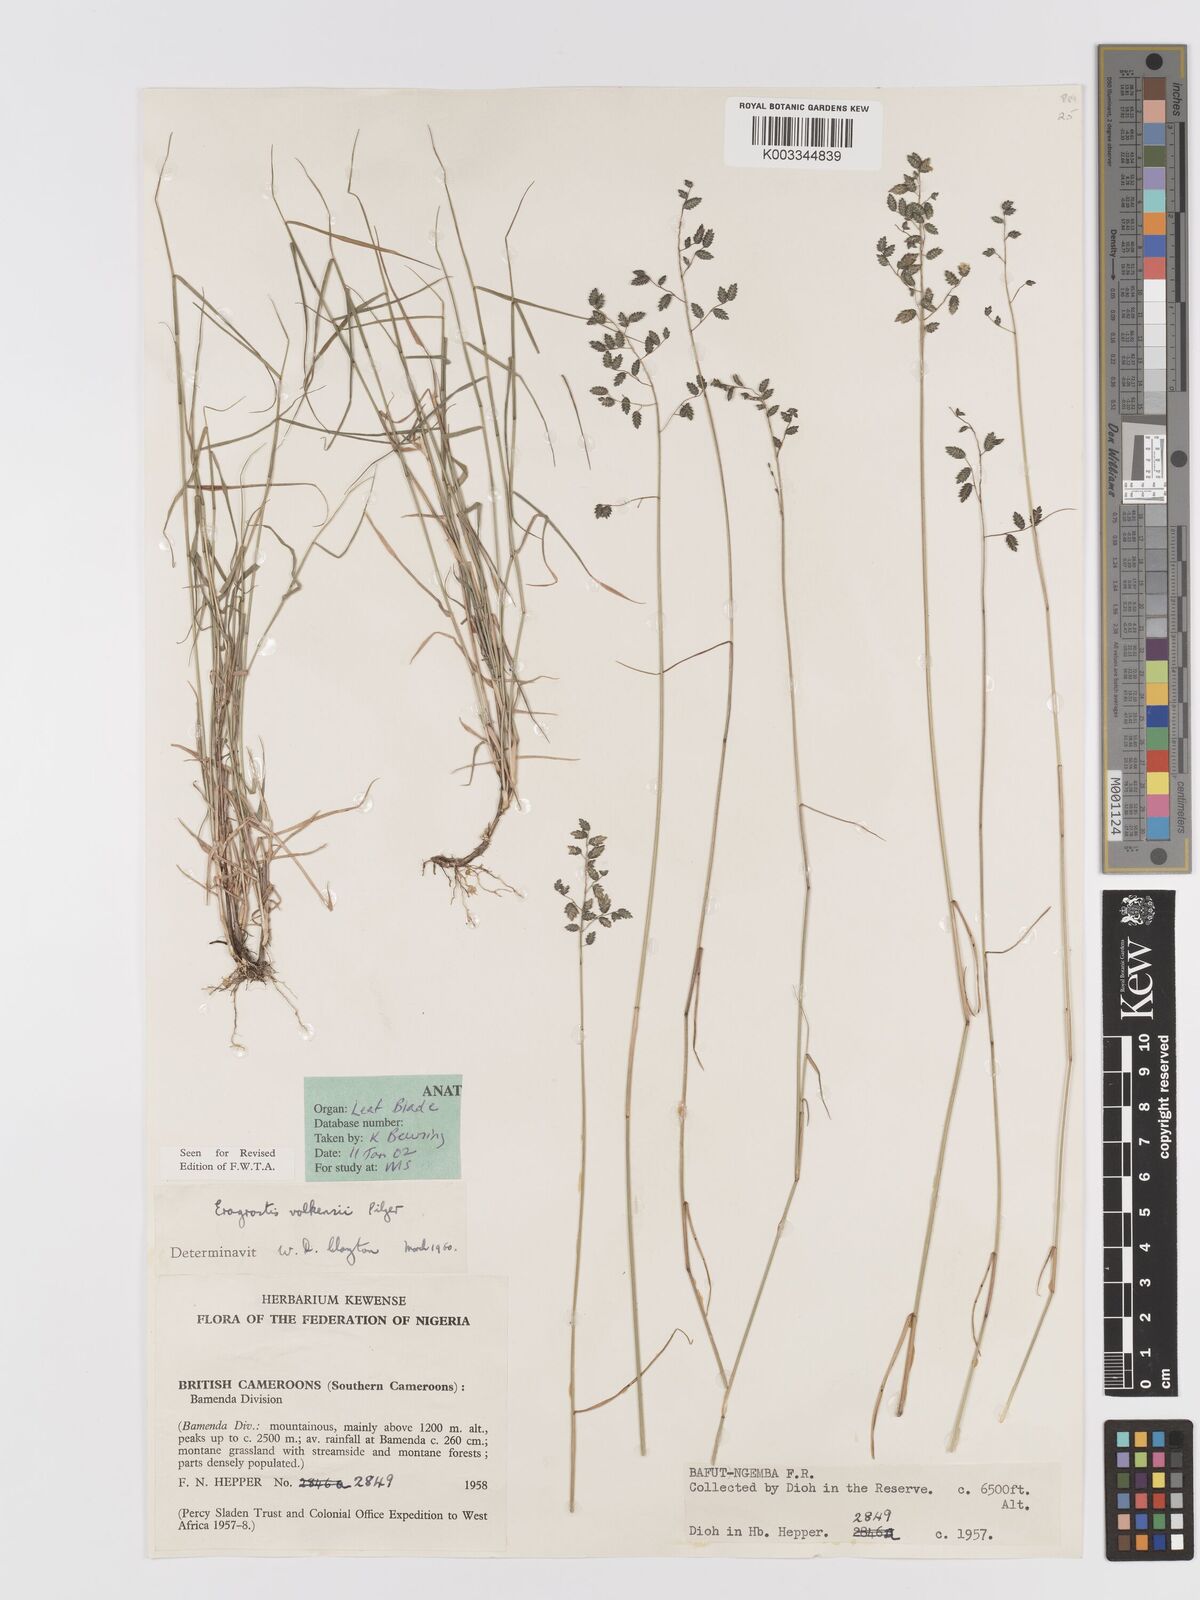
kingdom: Plantae
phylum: Tracheophyta
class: Liliopsida
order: Poales
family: Poaceae
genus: Eragrostis
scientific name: Eragrostis volkensii
